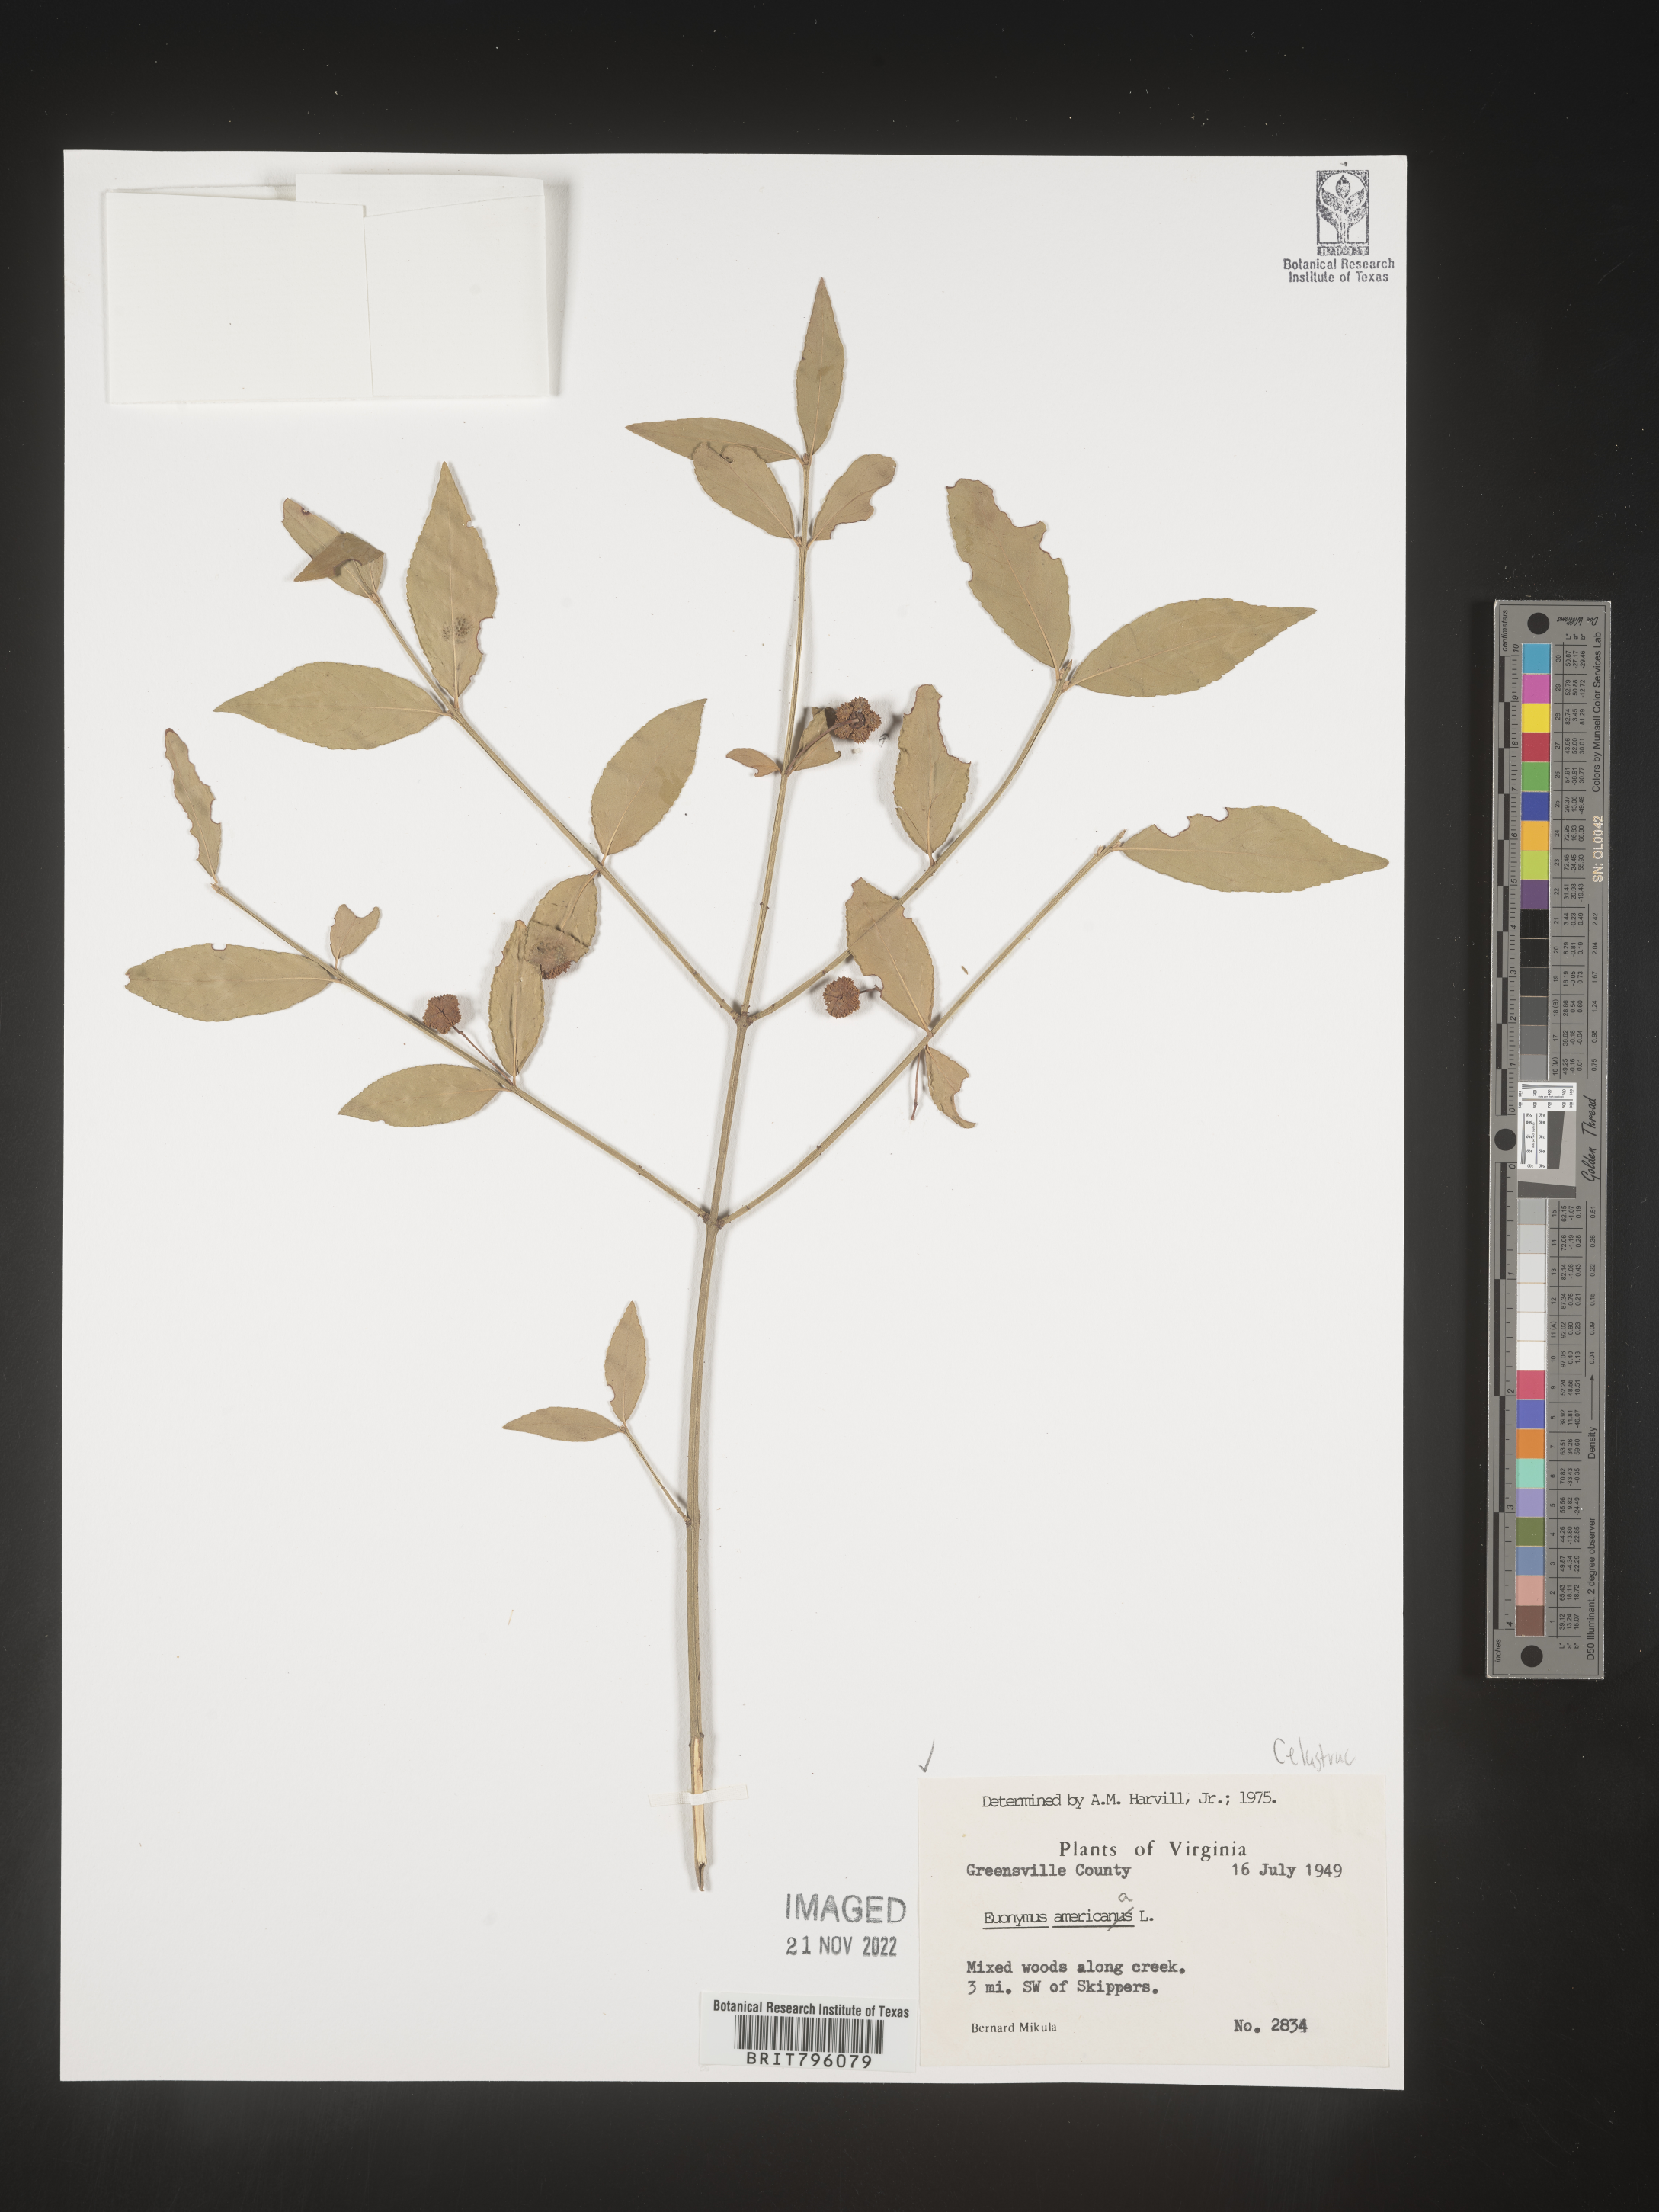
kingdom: Plantae
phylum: Tracheophyta
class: Magnoliopsida
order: Celastrales
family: Celastraceae
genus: Euonymus
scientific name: Euonymus americanus
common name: Bursting-heart
